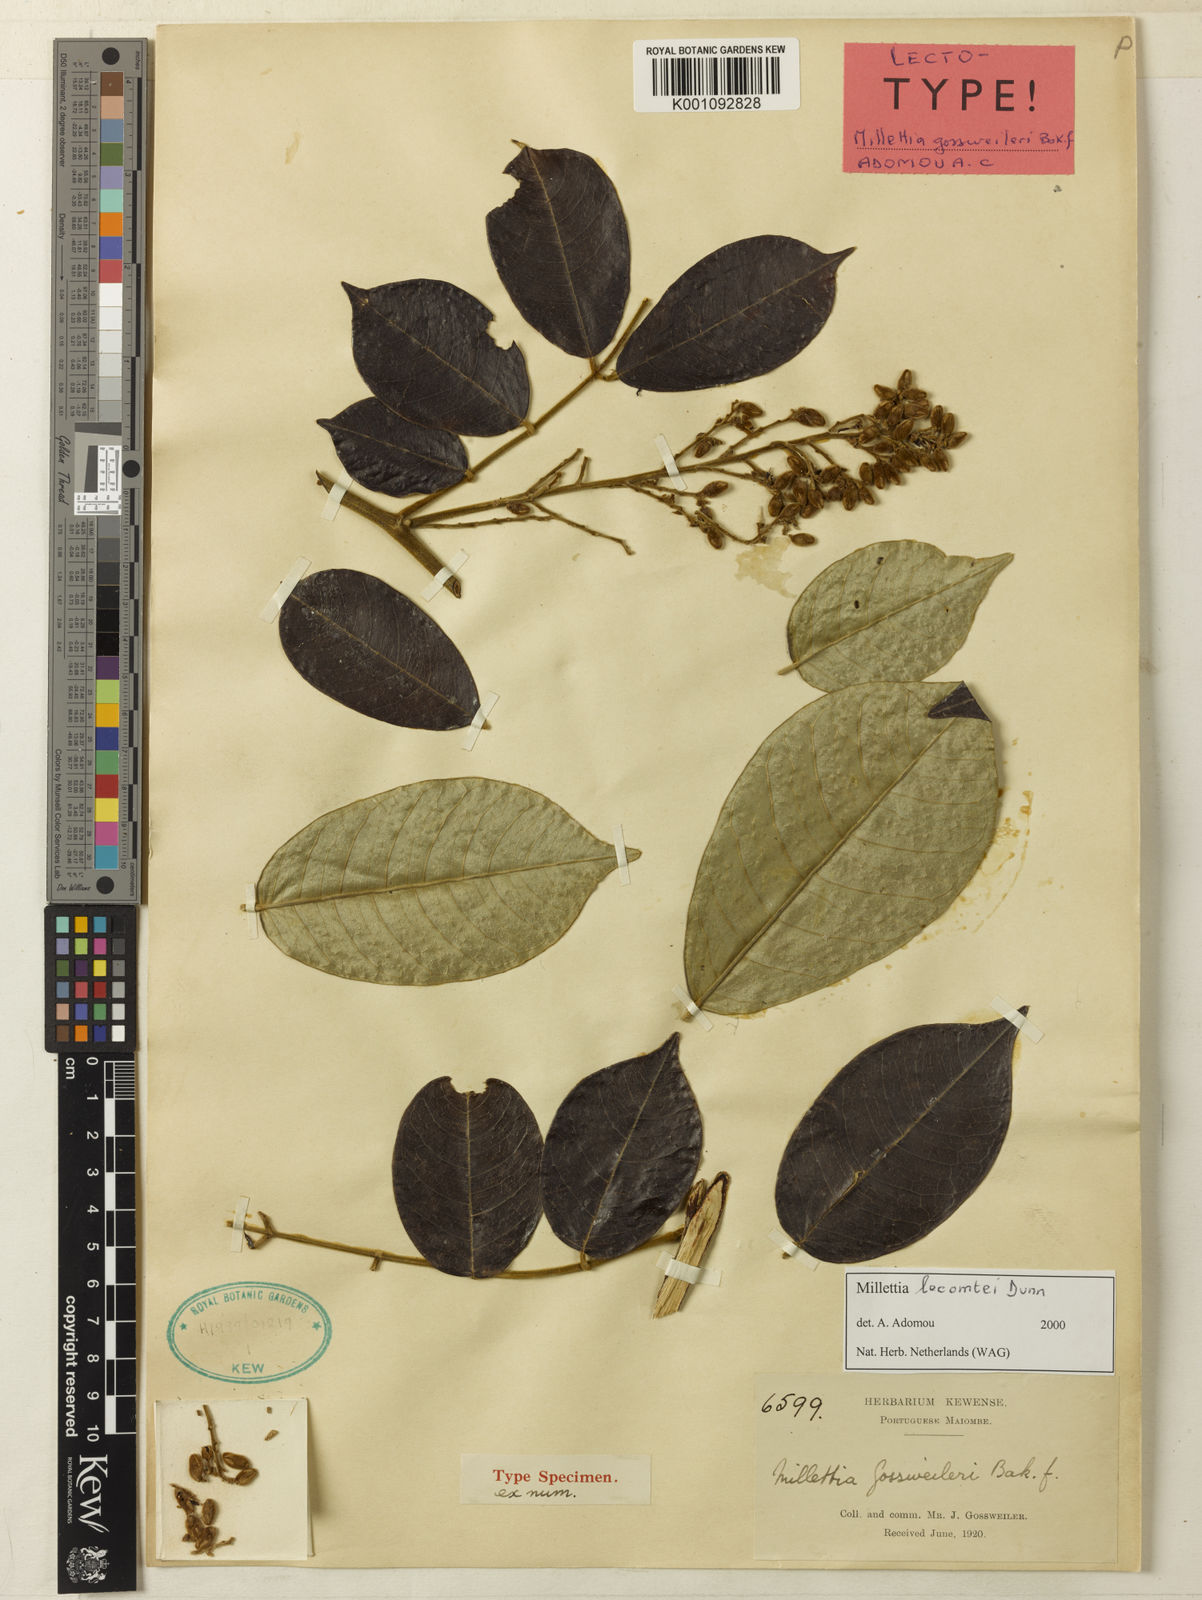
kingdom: Plantae
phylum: Tracheophyta
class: Magnoliopsida
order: Fabales
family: Fabaceae
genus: Millettia
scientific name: Millettia lecomtei
